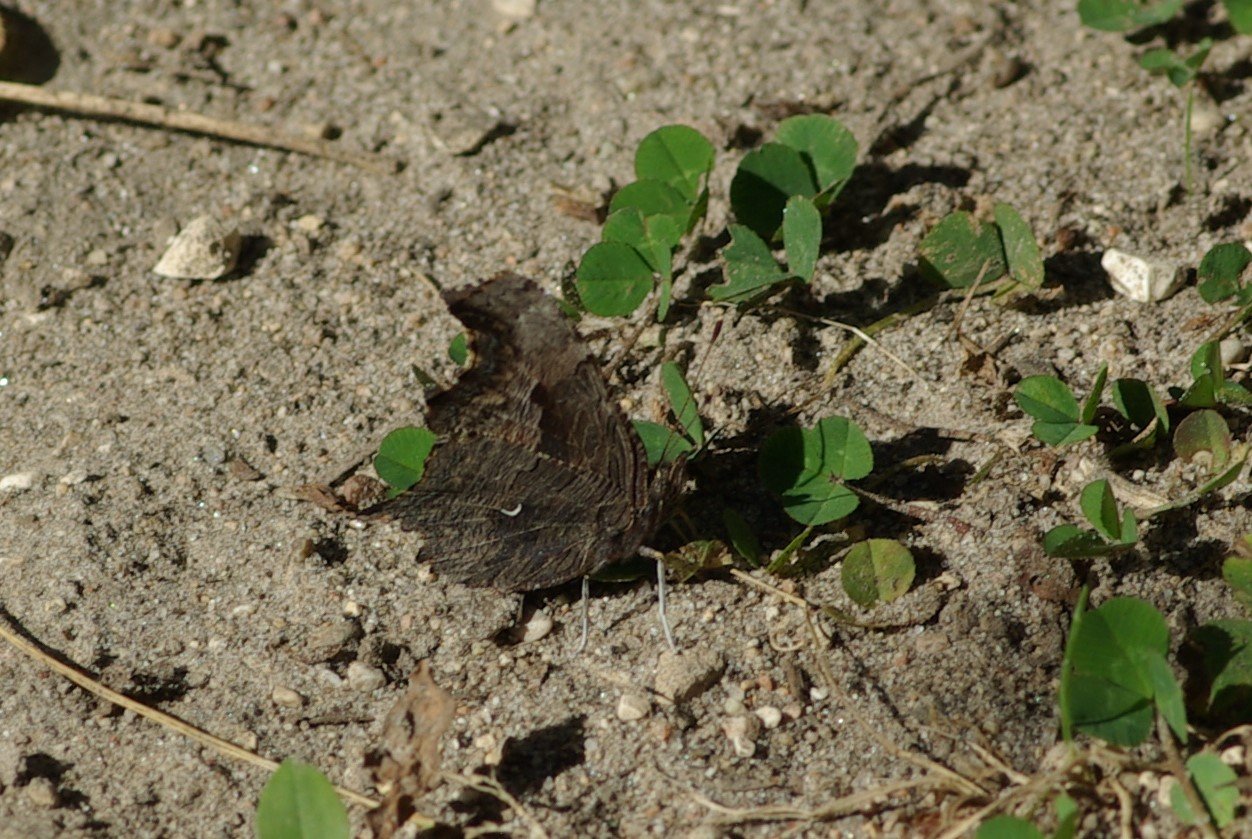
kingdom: Animalia
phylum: Arthropoda
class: Insecta
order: Lepidoptera
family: Nymphalidae
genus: Polygonia
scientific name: Polygonia progne
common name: Gray Comma
